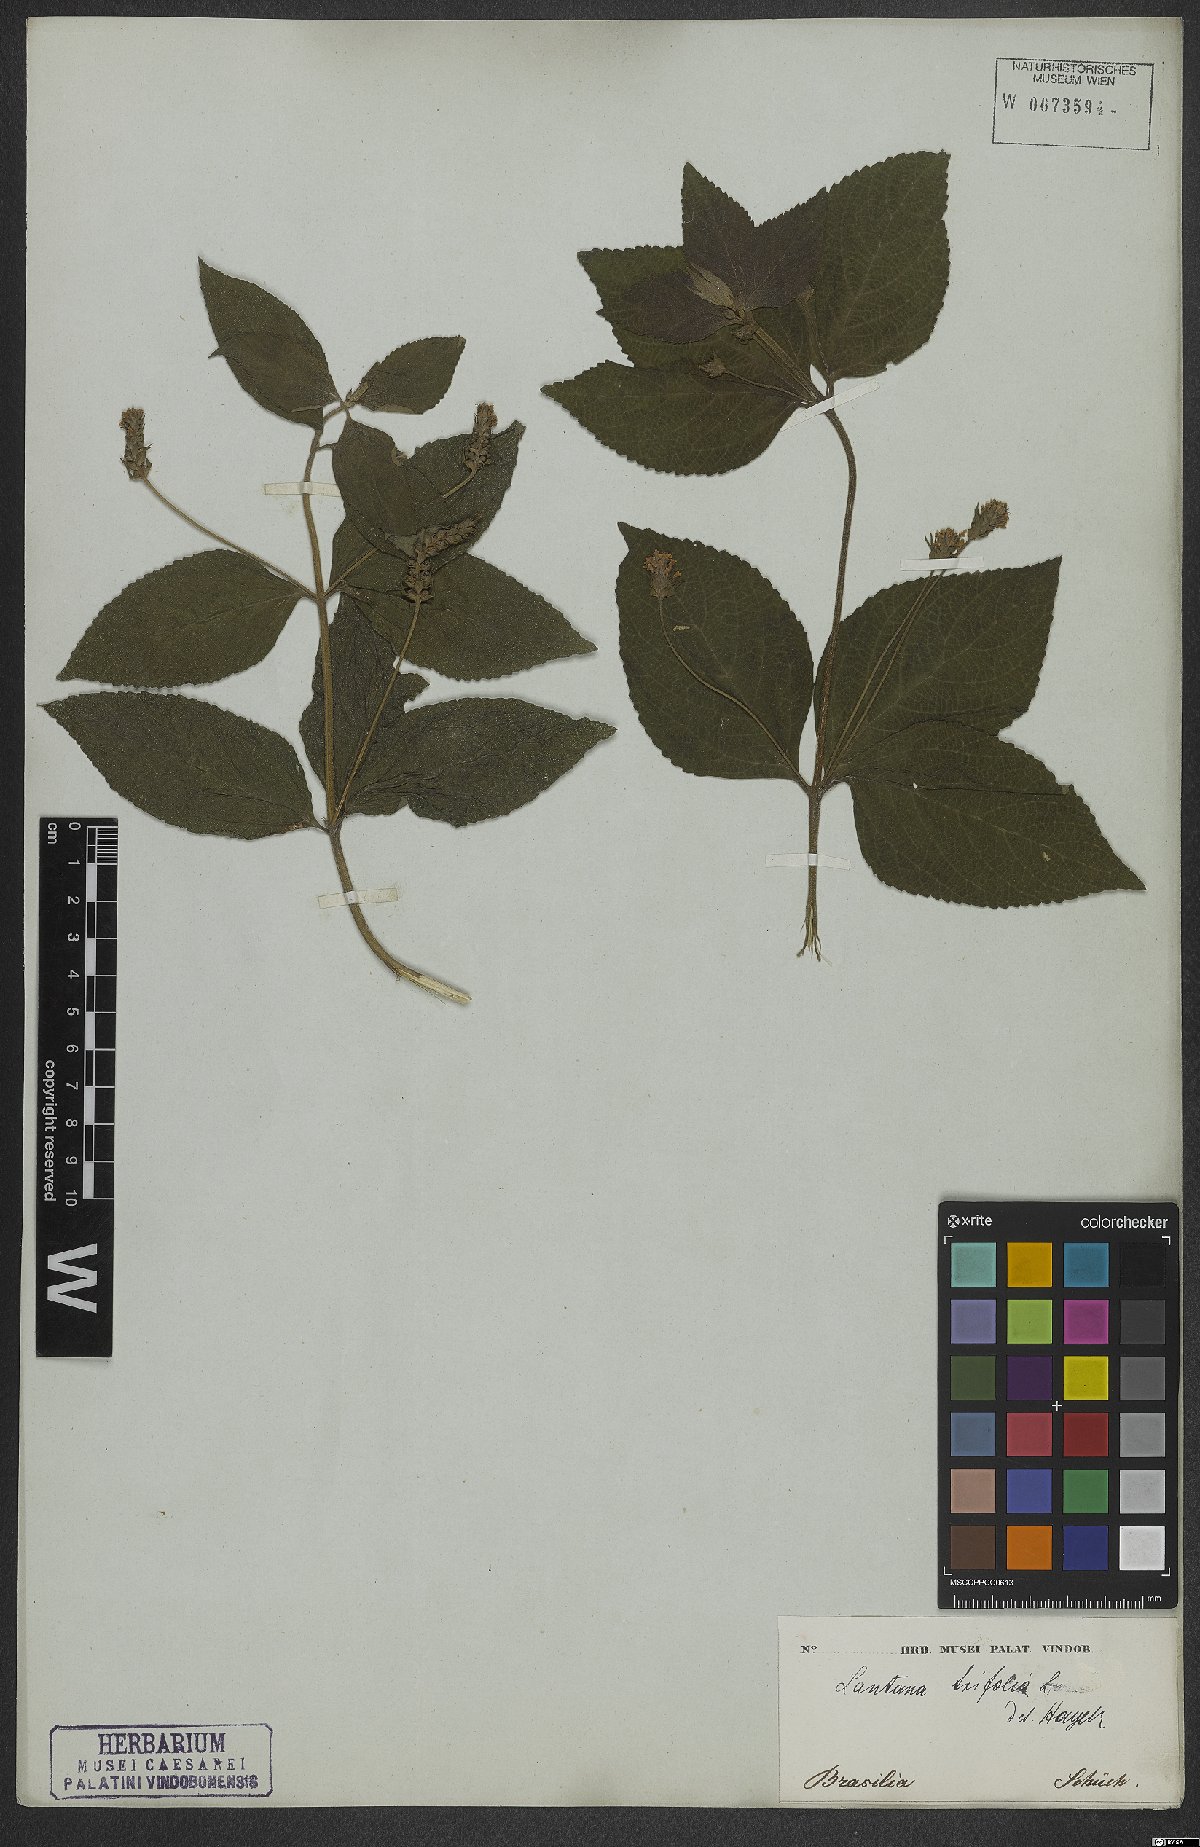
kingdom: Plantae
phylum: Tracheophyta
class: Magnoliopsida
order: Lamiales
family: Verbenaceae
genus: Lantana
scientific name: Lantana trifolia
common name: Sweet-sage
